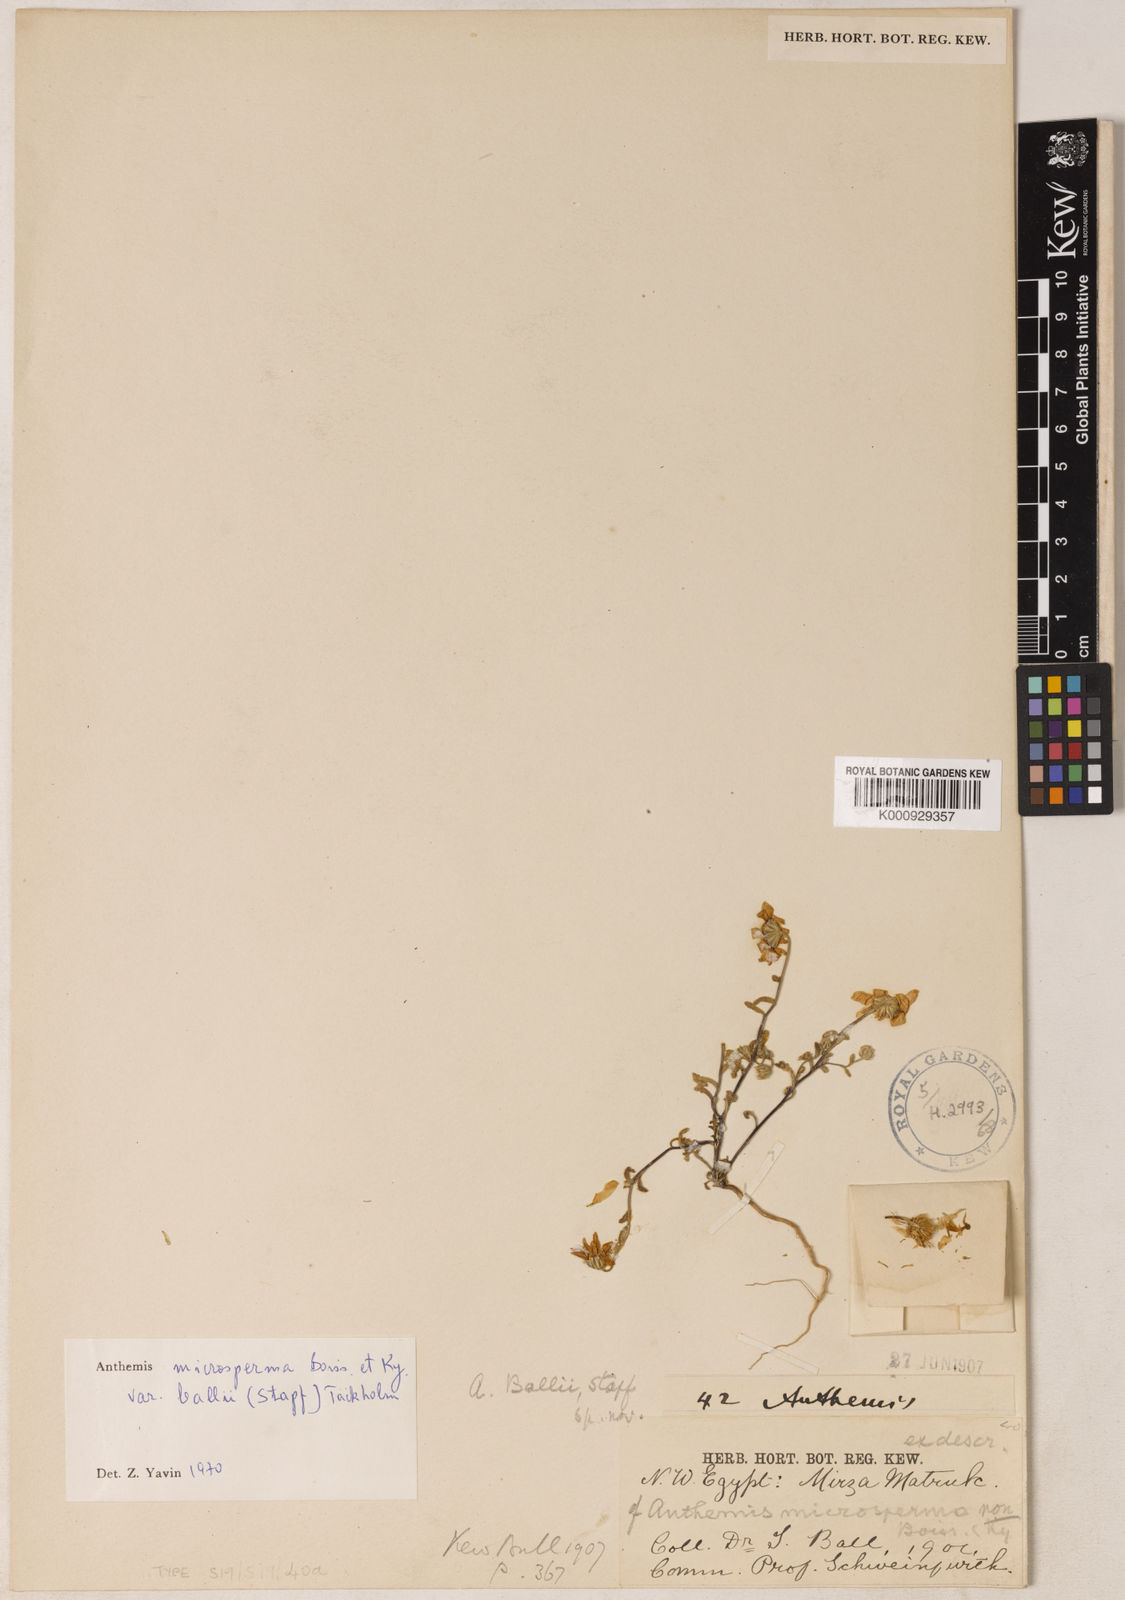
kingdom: Plantae
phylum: Tracheophyta
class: Magnoliopsida
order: Asterales
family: Asteraceae
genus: Anthemis
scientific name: Anthemis microsperma
